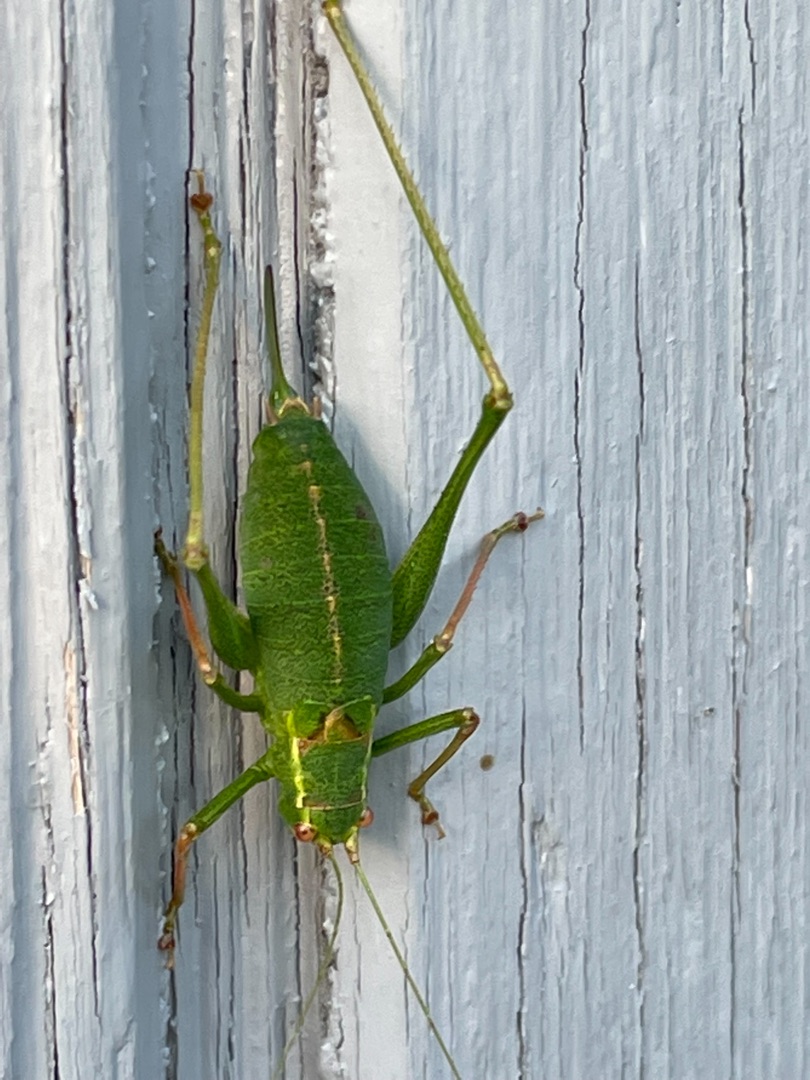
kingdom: Animalia
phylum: Arthropoda
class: Insecta
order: Orthoptera
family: Tettigoniidae
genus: Leptophyes
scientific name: Leptophyes punctatissima
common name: Krumknivgræshoppe
